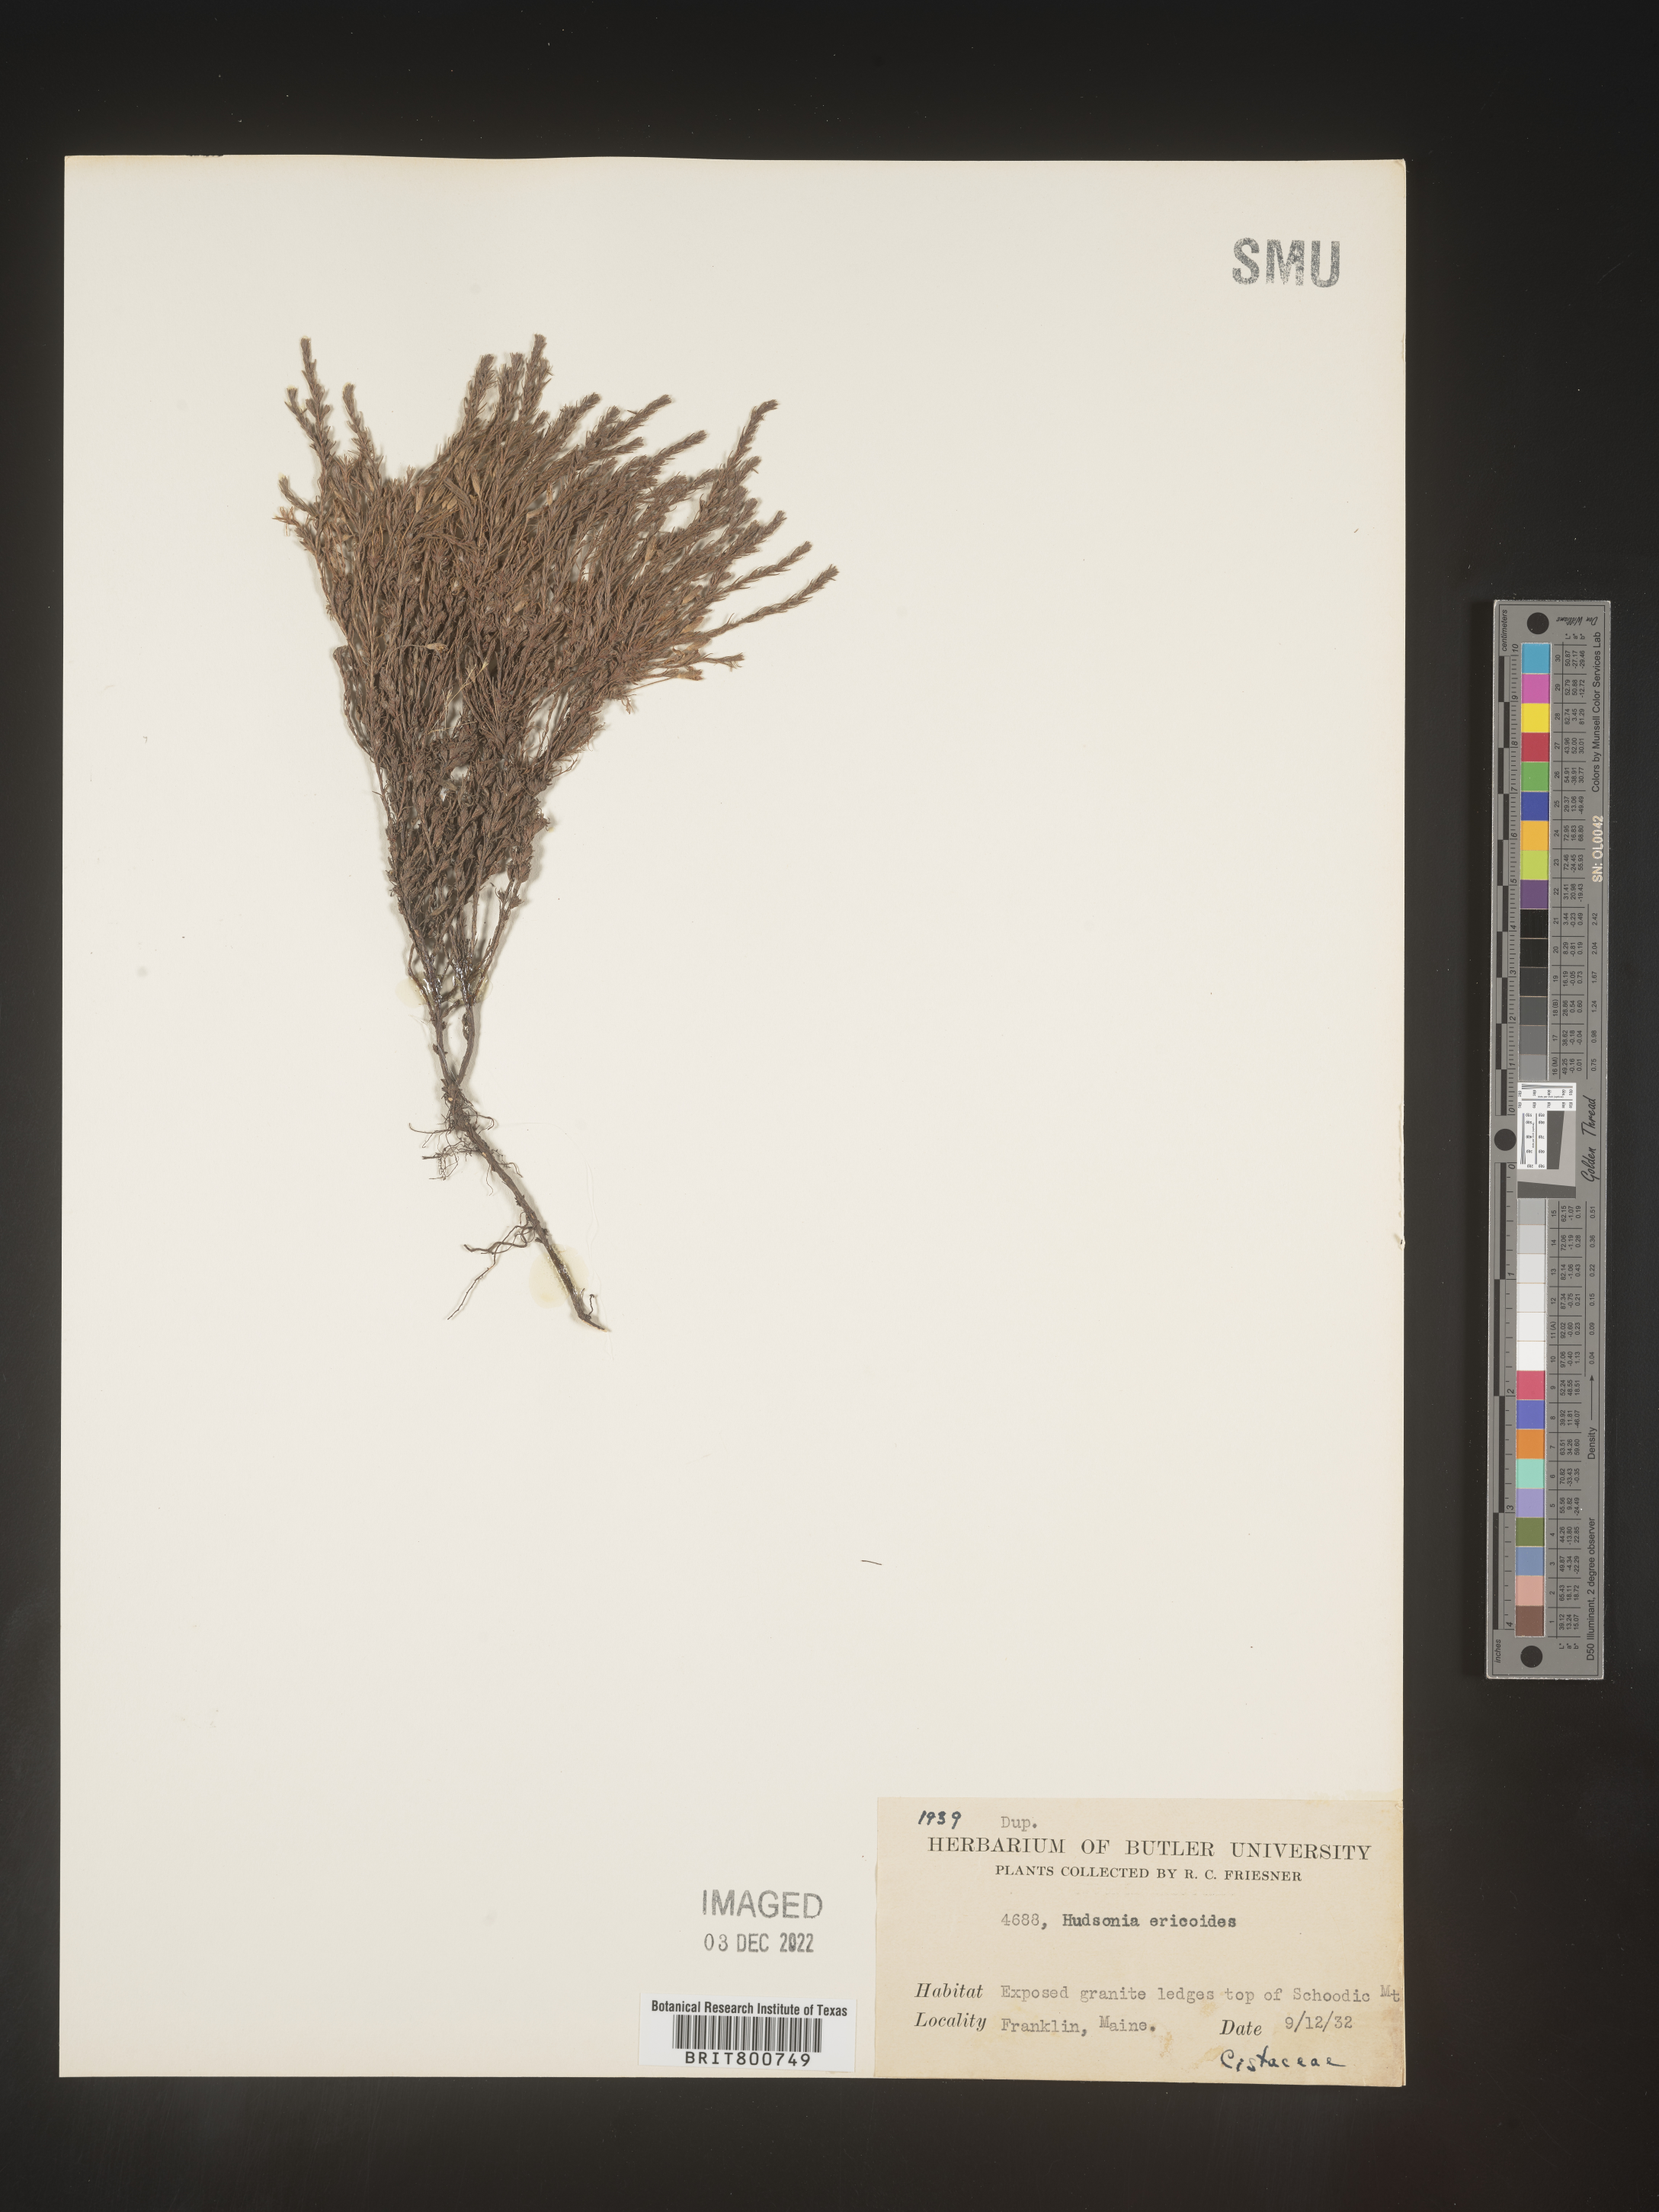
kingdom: Plantae
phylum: Tracheophyta
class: Magnoliopsida
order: Malvales
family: Cistaceae
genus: Hudsonia
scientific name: Hudsonia ericoides
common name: Golden-heather
